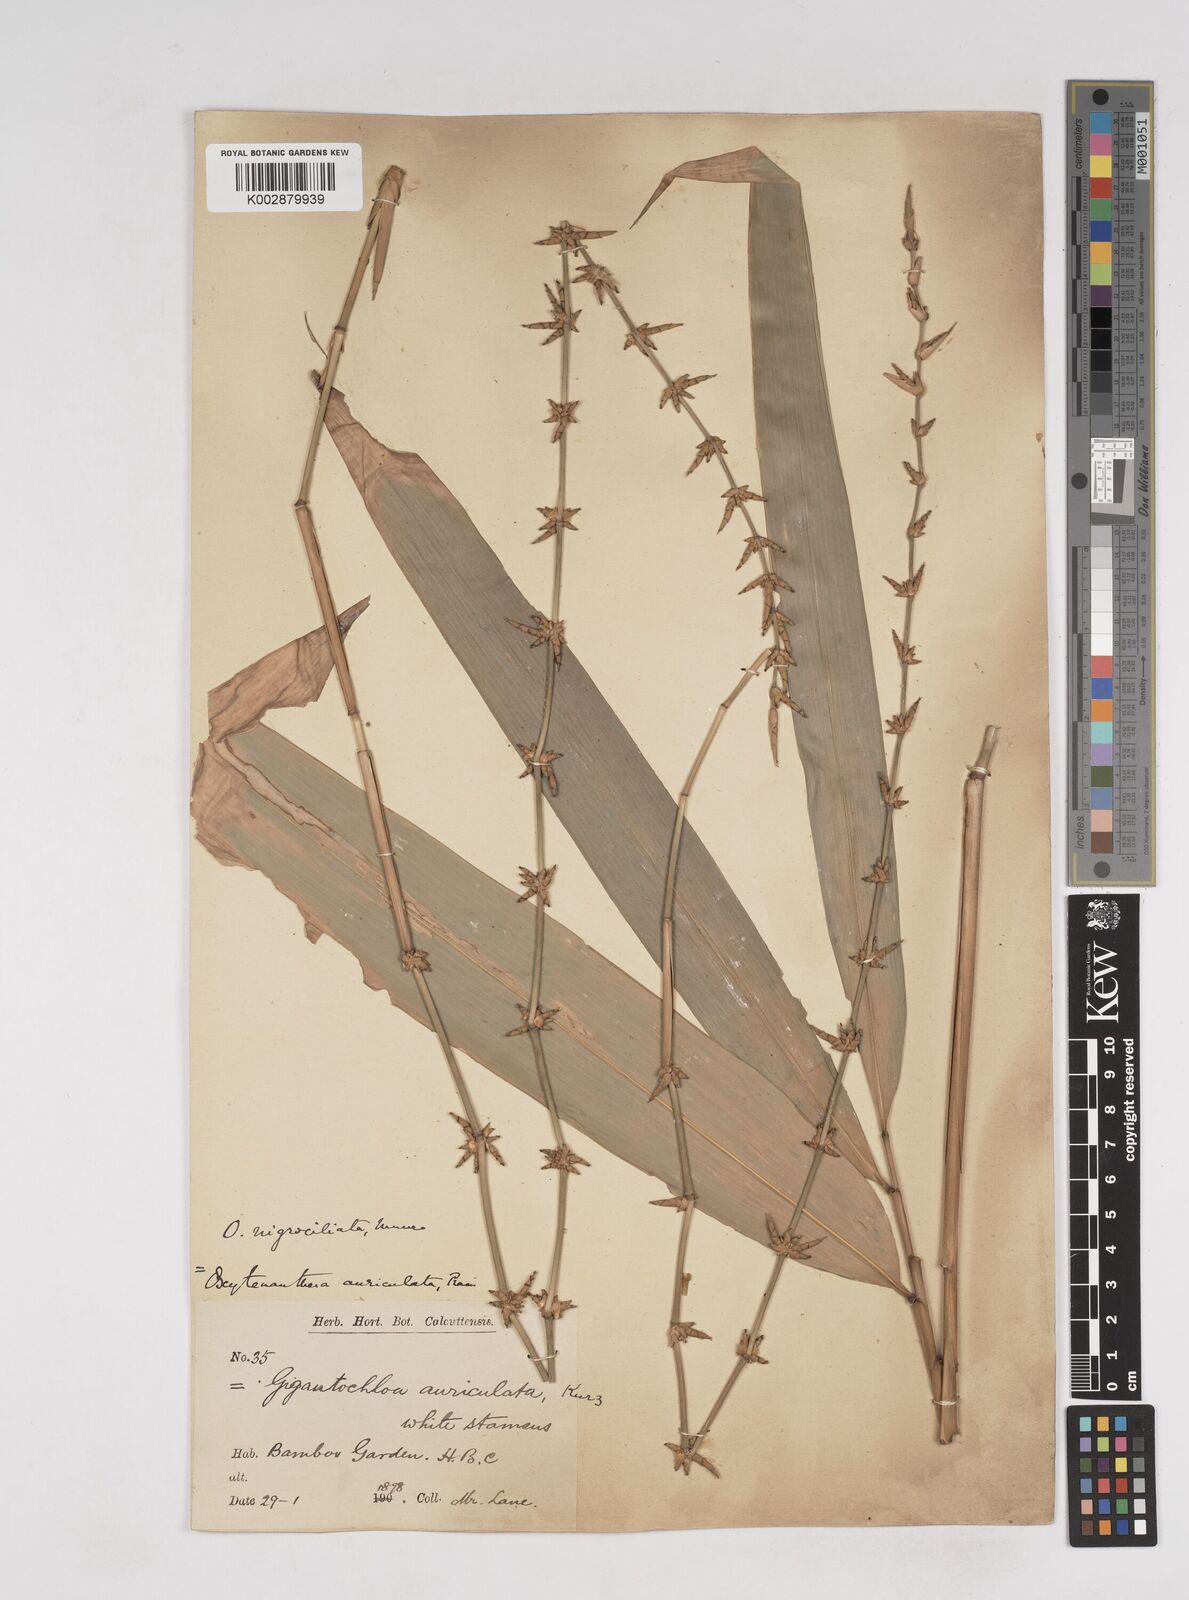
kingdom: Plantae
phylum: Tracheophyta
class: Liliopsida
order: Poales
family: Poaceae
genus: Gigantochloa
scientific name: Gigantochloa nigrociliata
